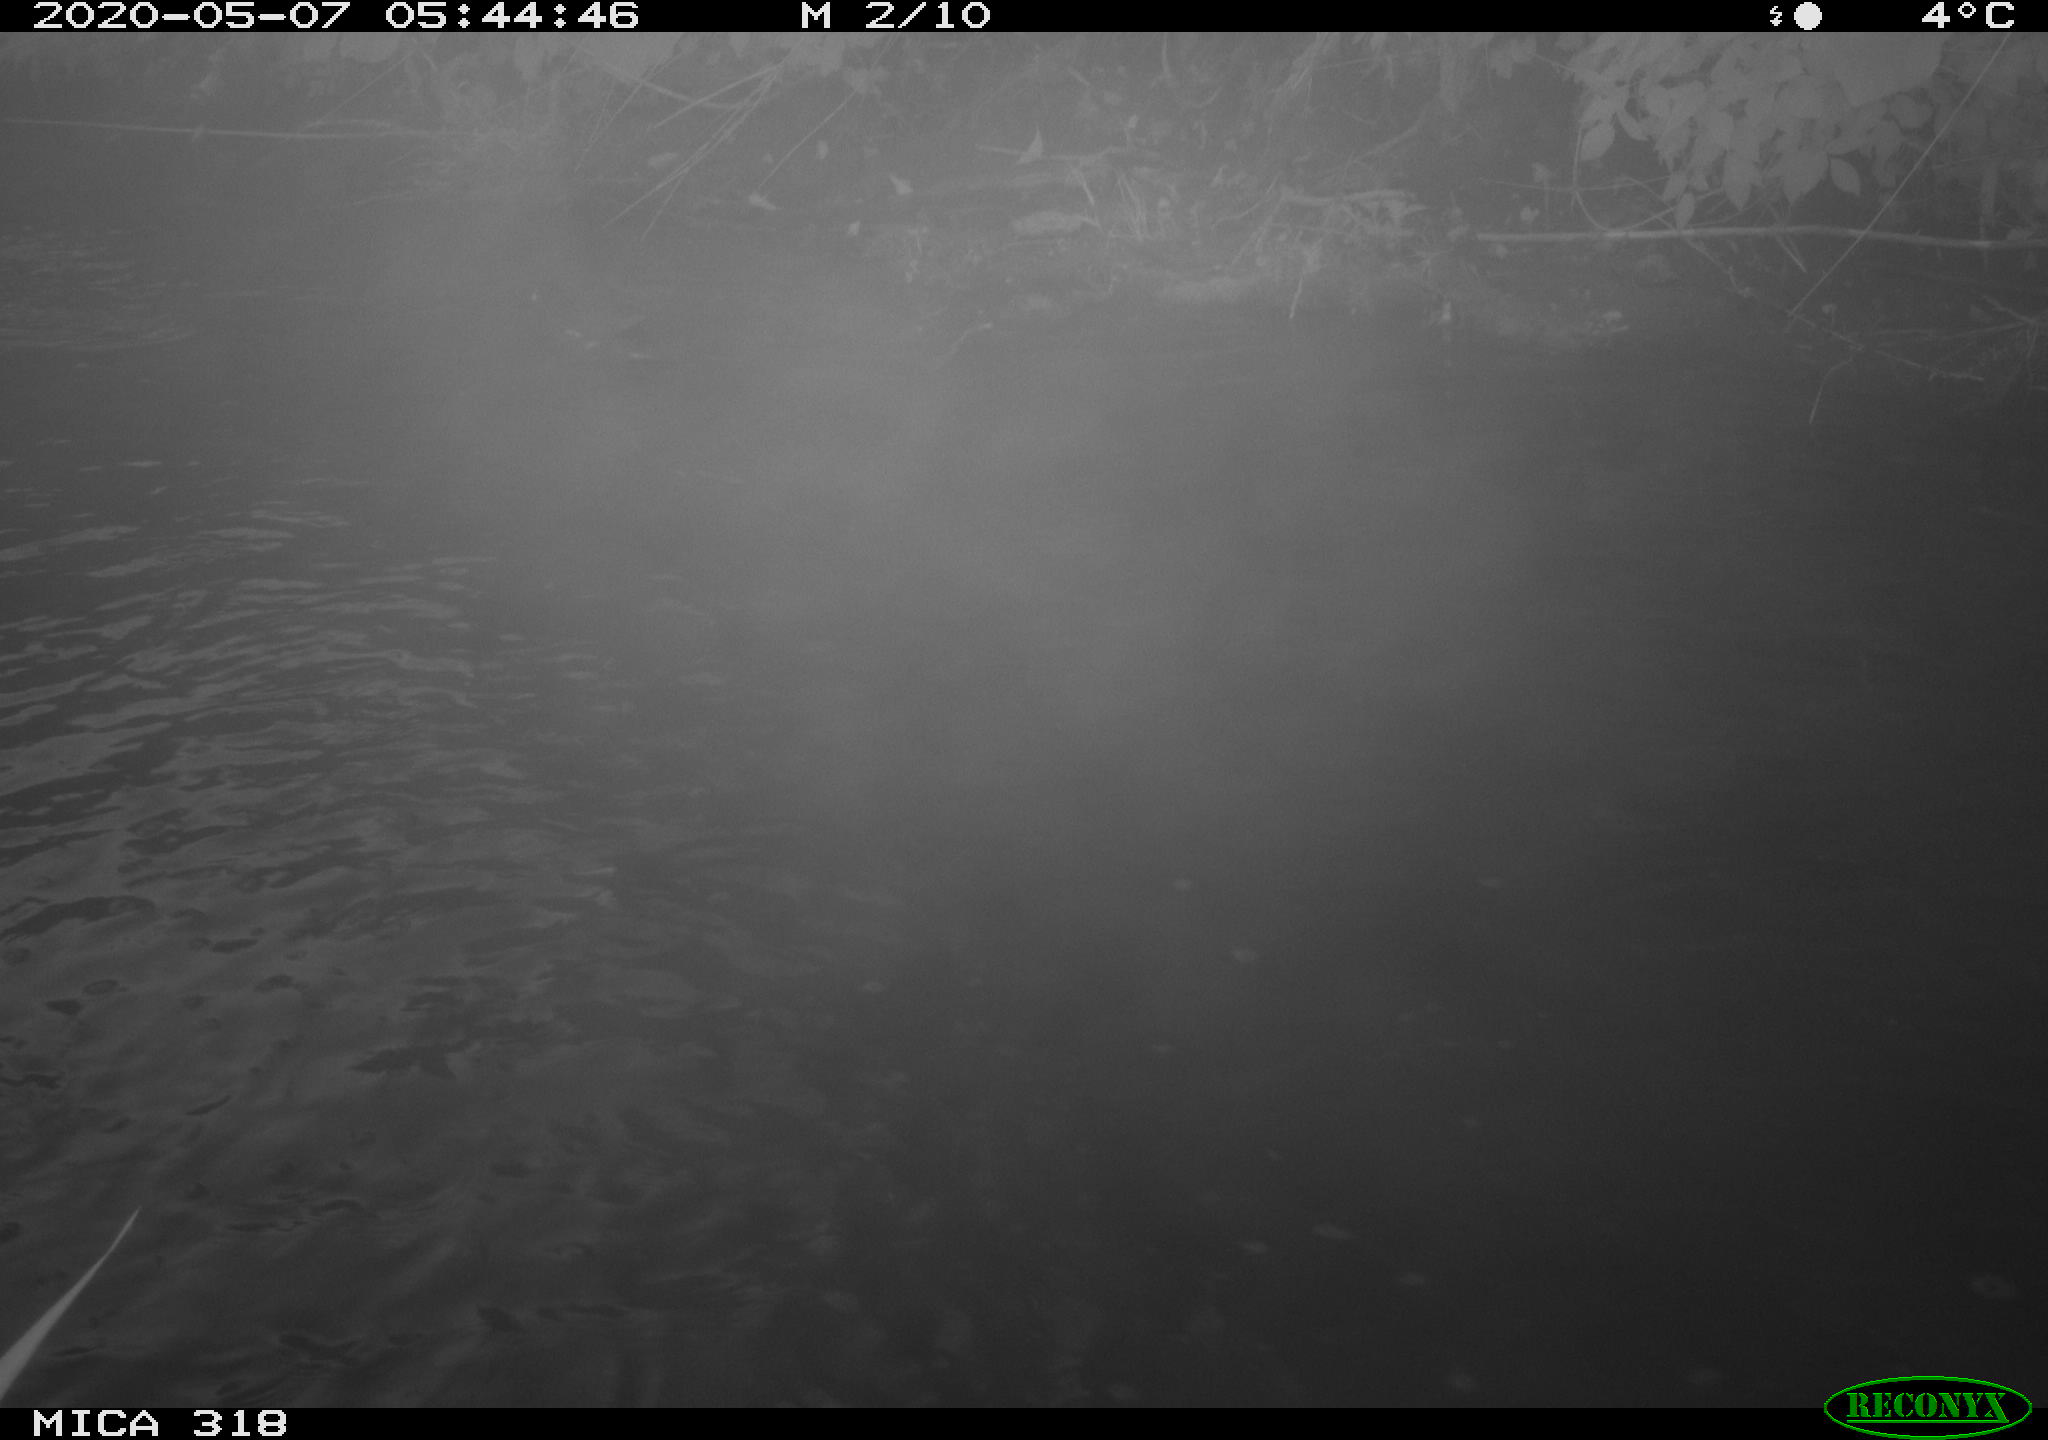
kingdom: Animalia
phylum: Chordata
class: Aves
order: Gruiformes
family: Rallidae
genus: Gallinula
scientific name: Gallinula chloropus
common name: Common moorhen
